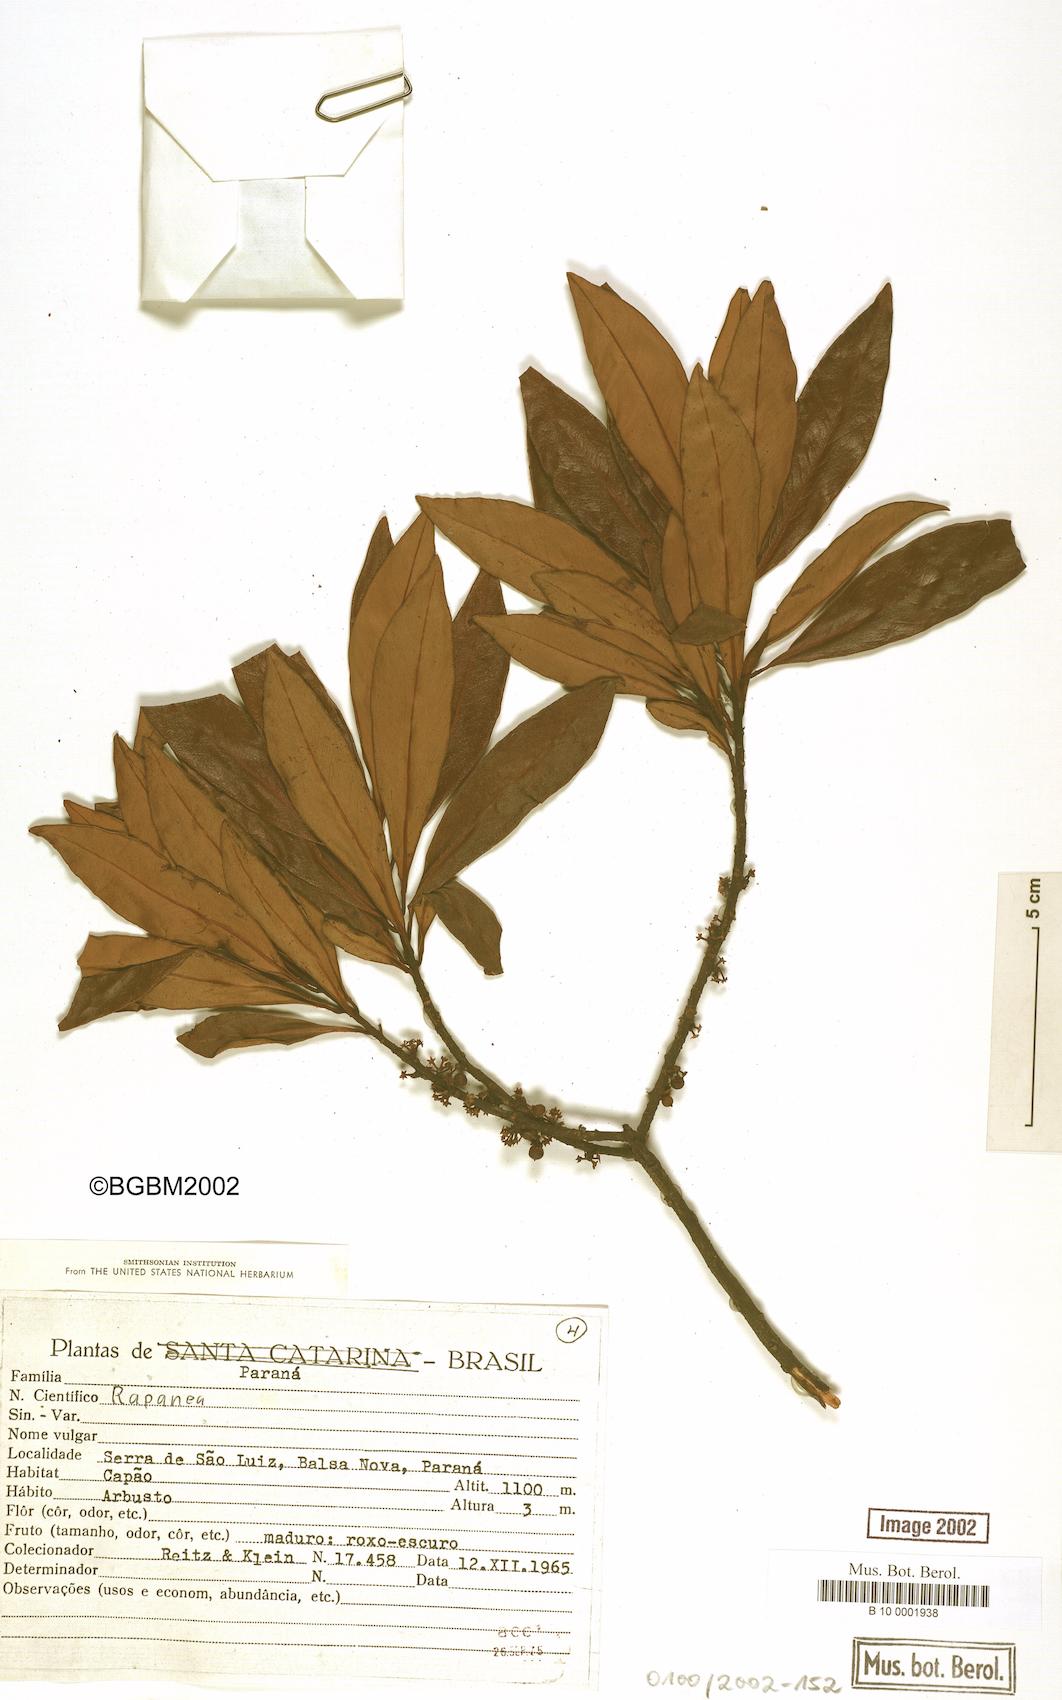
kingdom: Plantae
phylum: Tracheophyta
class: Magnoliopsida
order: Ericales
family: Primulaceae
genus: Myrsine
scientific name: Myrsine
